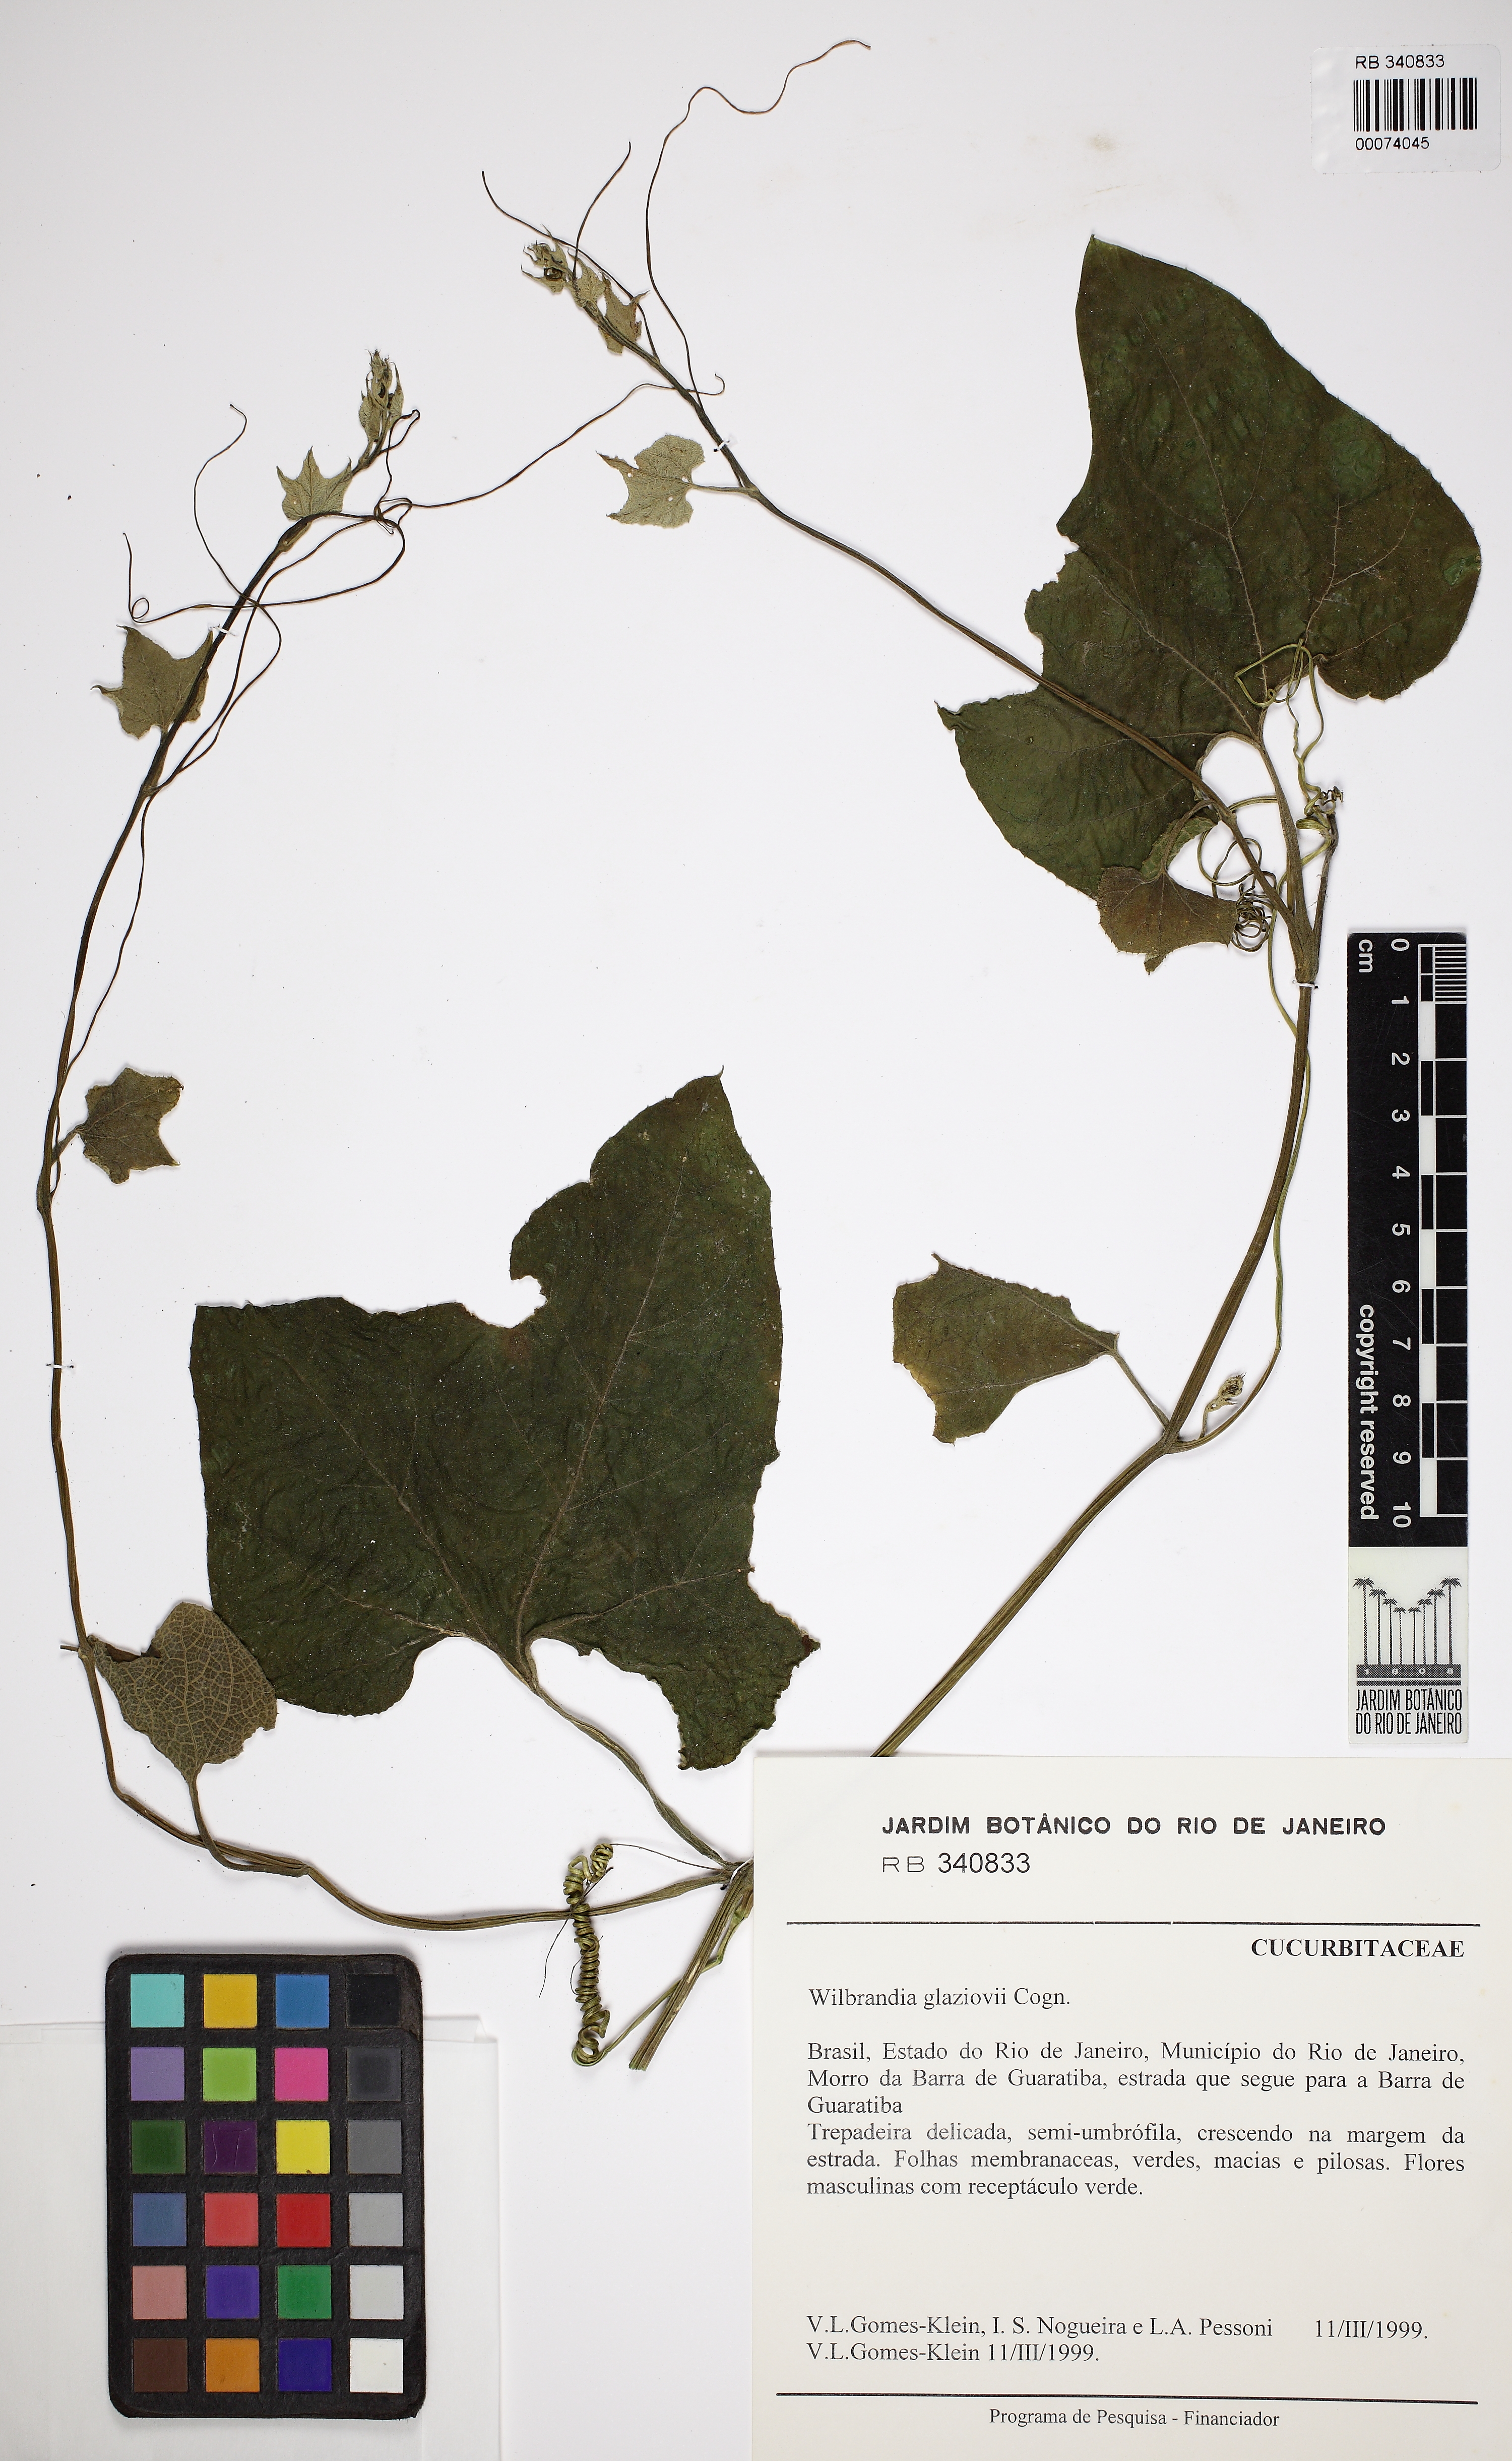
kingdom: Plantae
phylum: Tracheophyta
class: Magnoliopsida
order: Cucurbitales
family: Cucurbitaceae
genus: Wilbrandia
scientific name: Wilbrandia glaziovii
